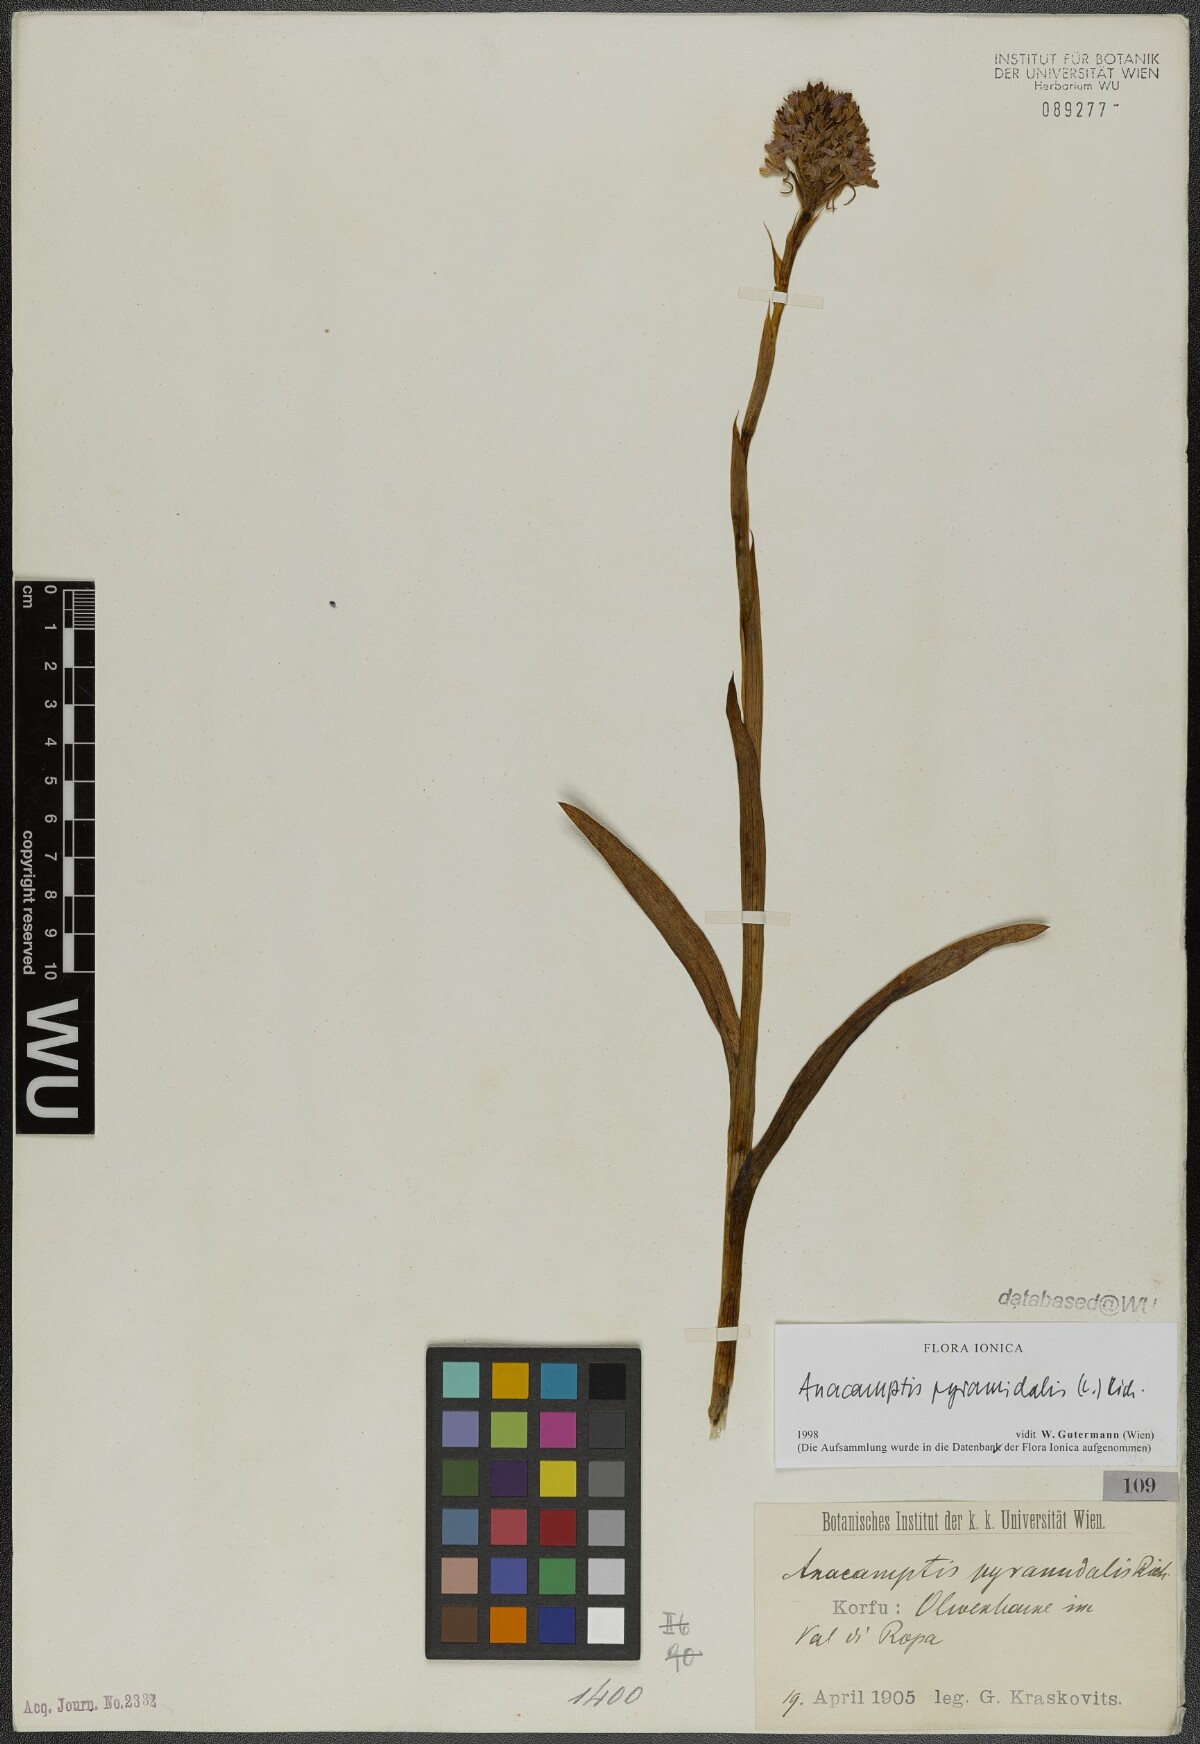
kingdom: Plantae
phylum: Tracheophyta
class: Liliopsida
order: Asparagales
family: Orchidaceae
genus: Anacamptis
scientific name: Anacamptis pyramidalis
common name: Pyramidal orchid
